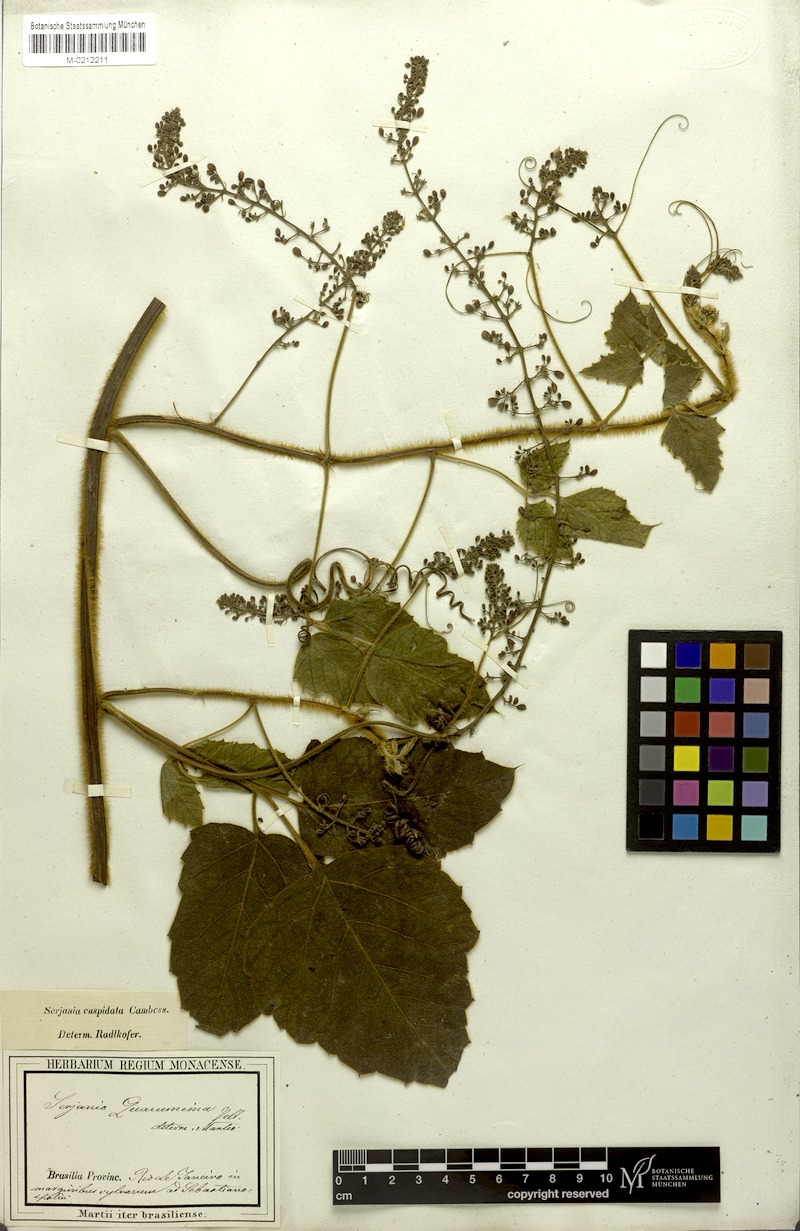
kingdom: Plantae
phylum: Tracheophyta
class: Magnoliopsida
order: Sapindales
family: Sapindaceae
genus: Serjania
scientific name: Serjania ferruginea
